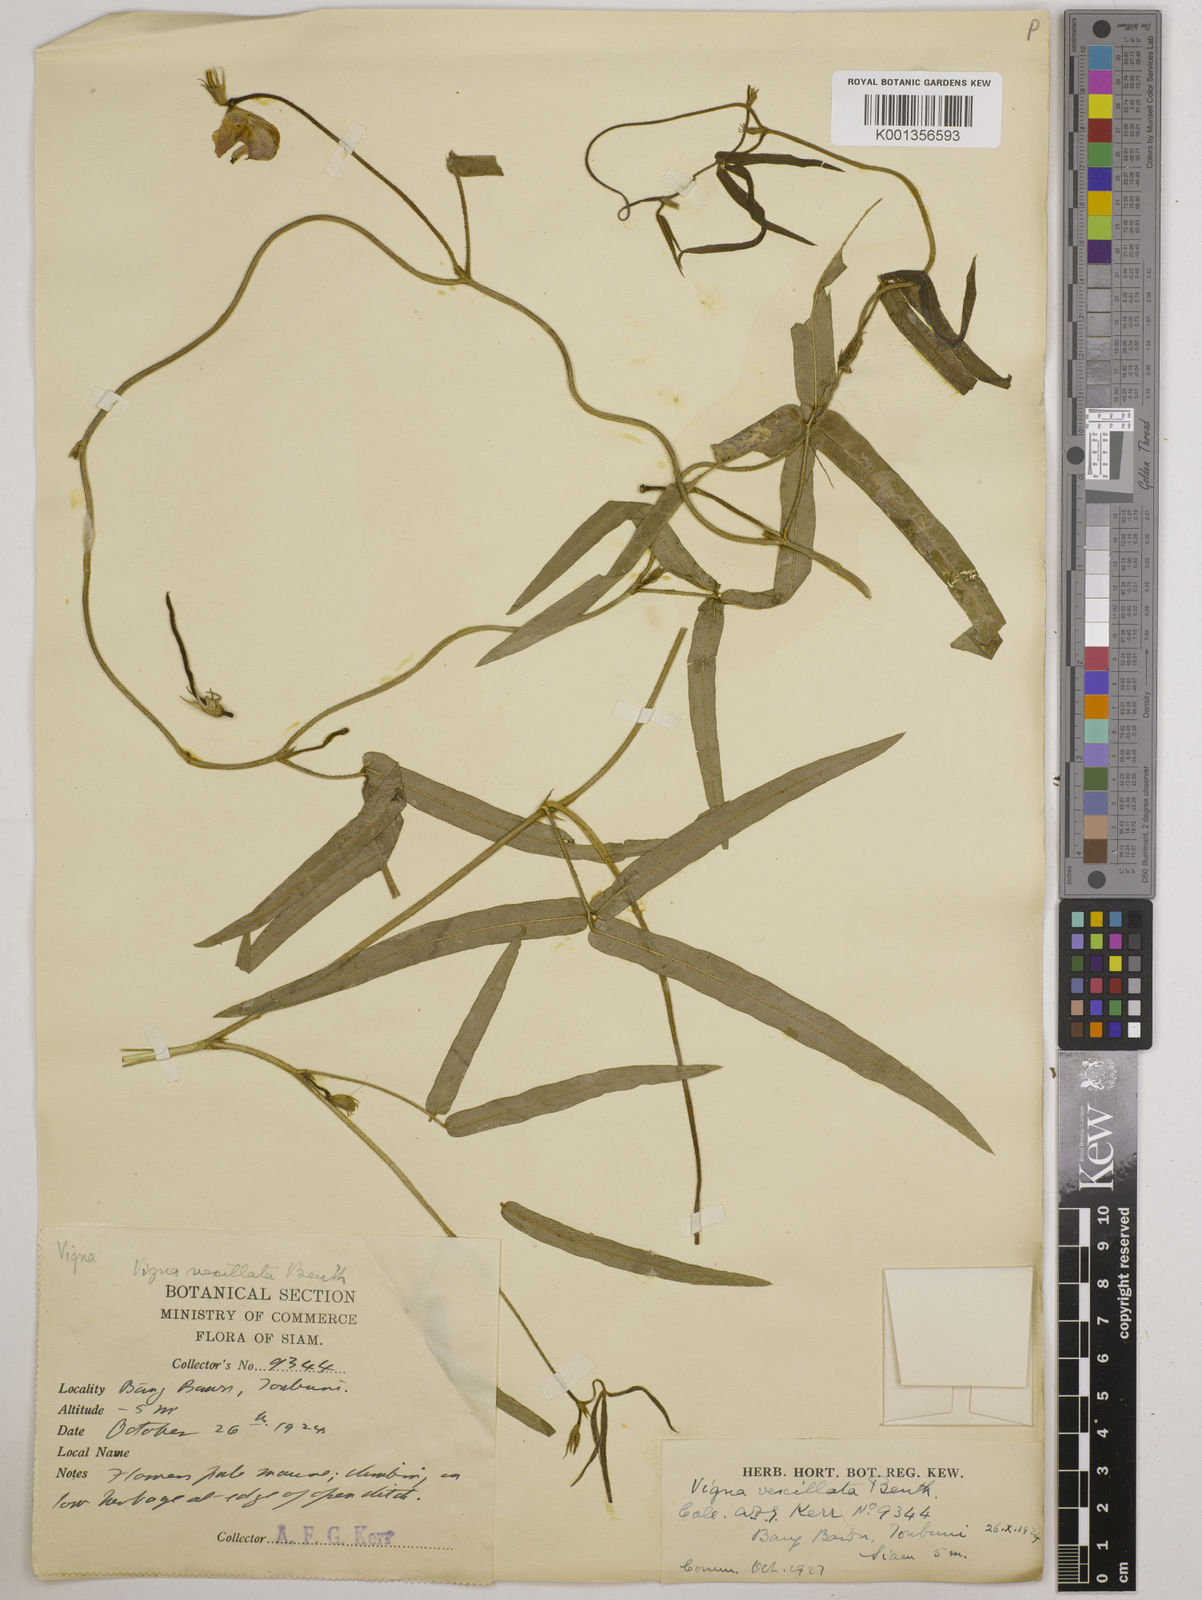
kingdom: Plantae
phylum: Tracheophyta
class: Magnoliopsida
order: Fabales
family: Fabaceae
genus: Vigna
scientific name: Vigna vexillata
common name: Zombi pea
